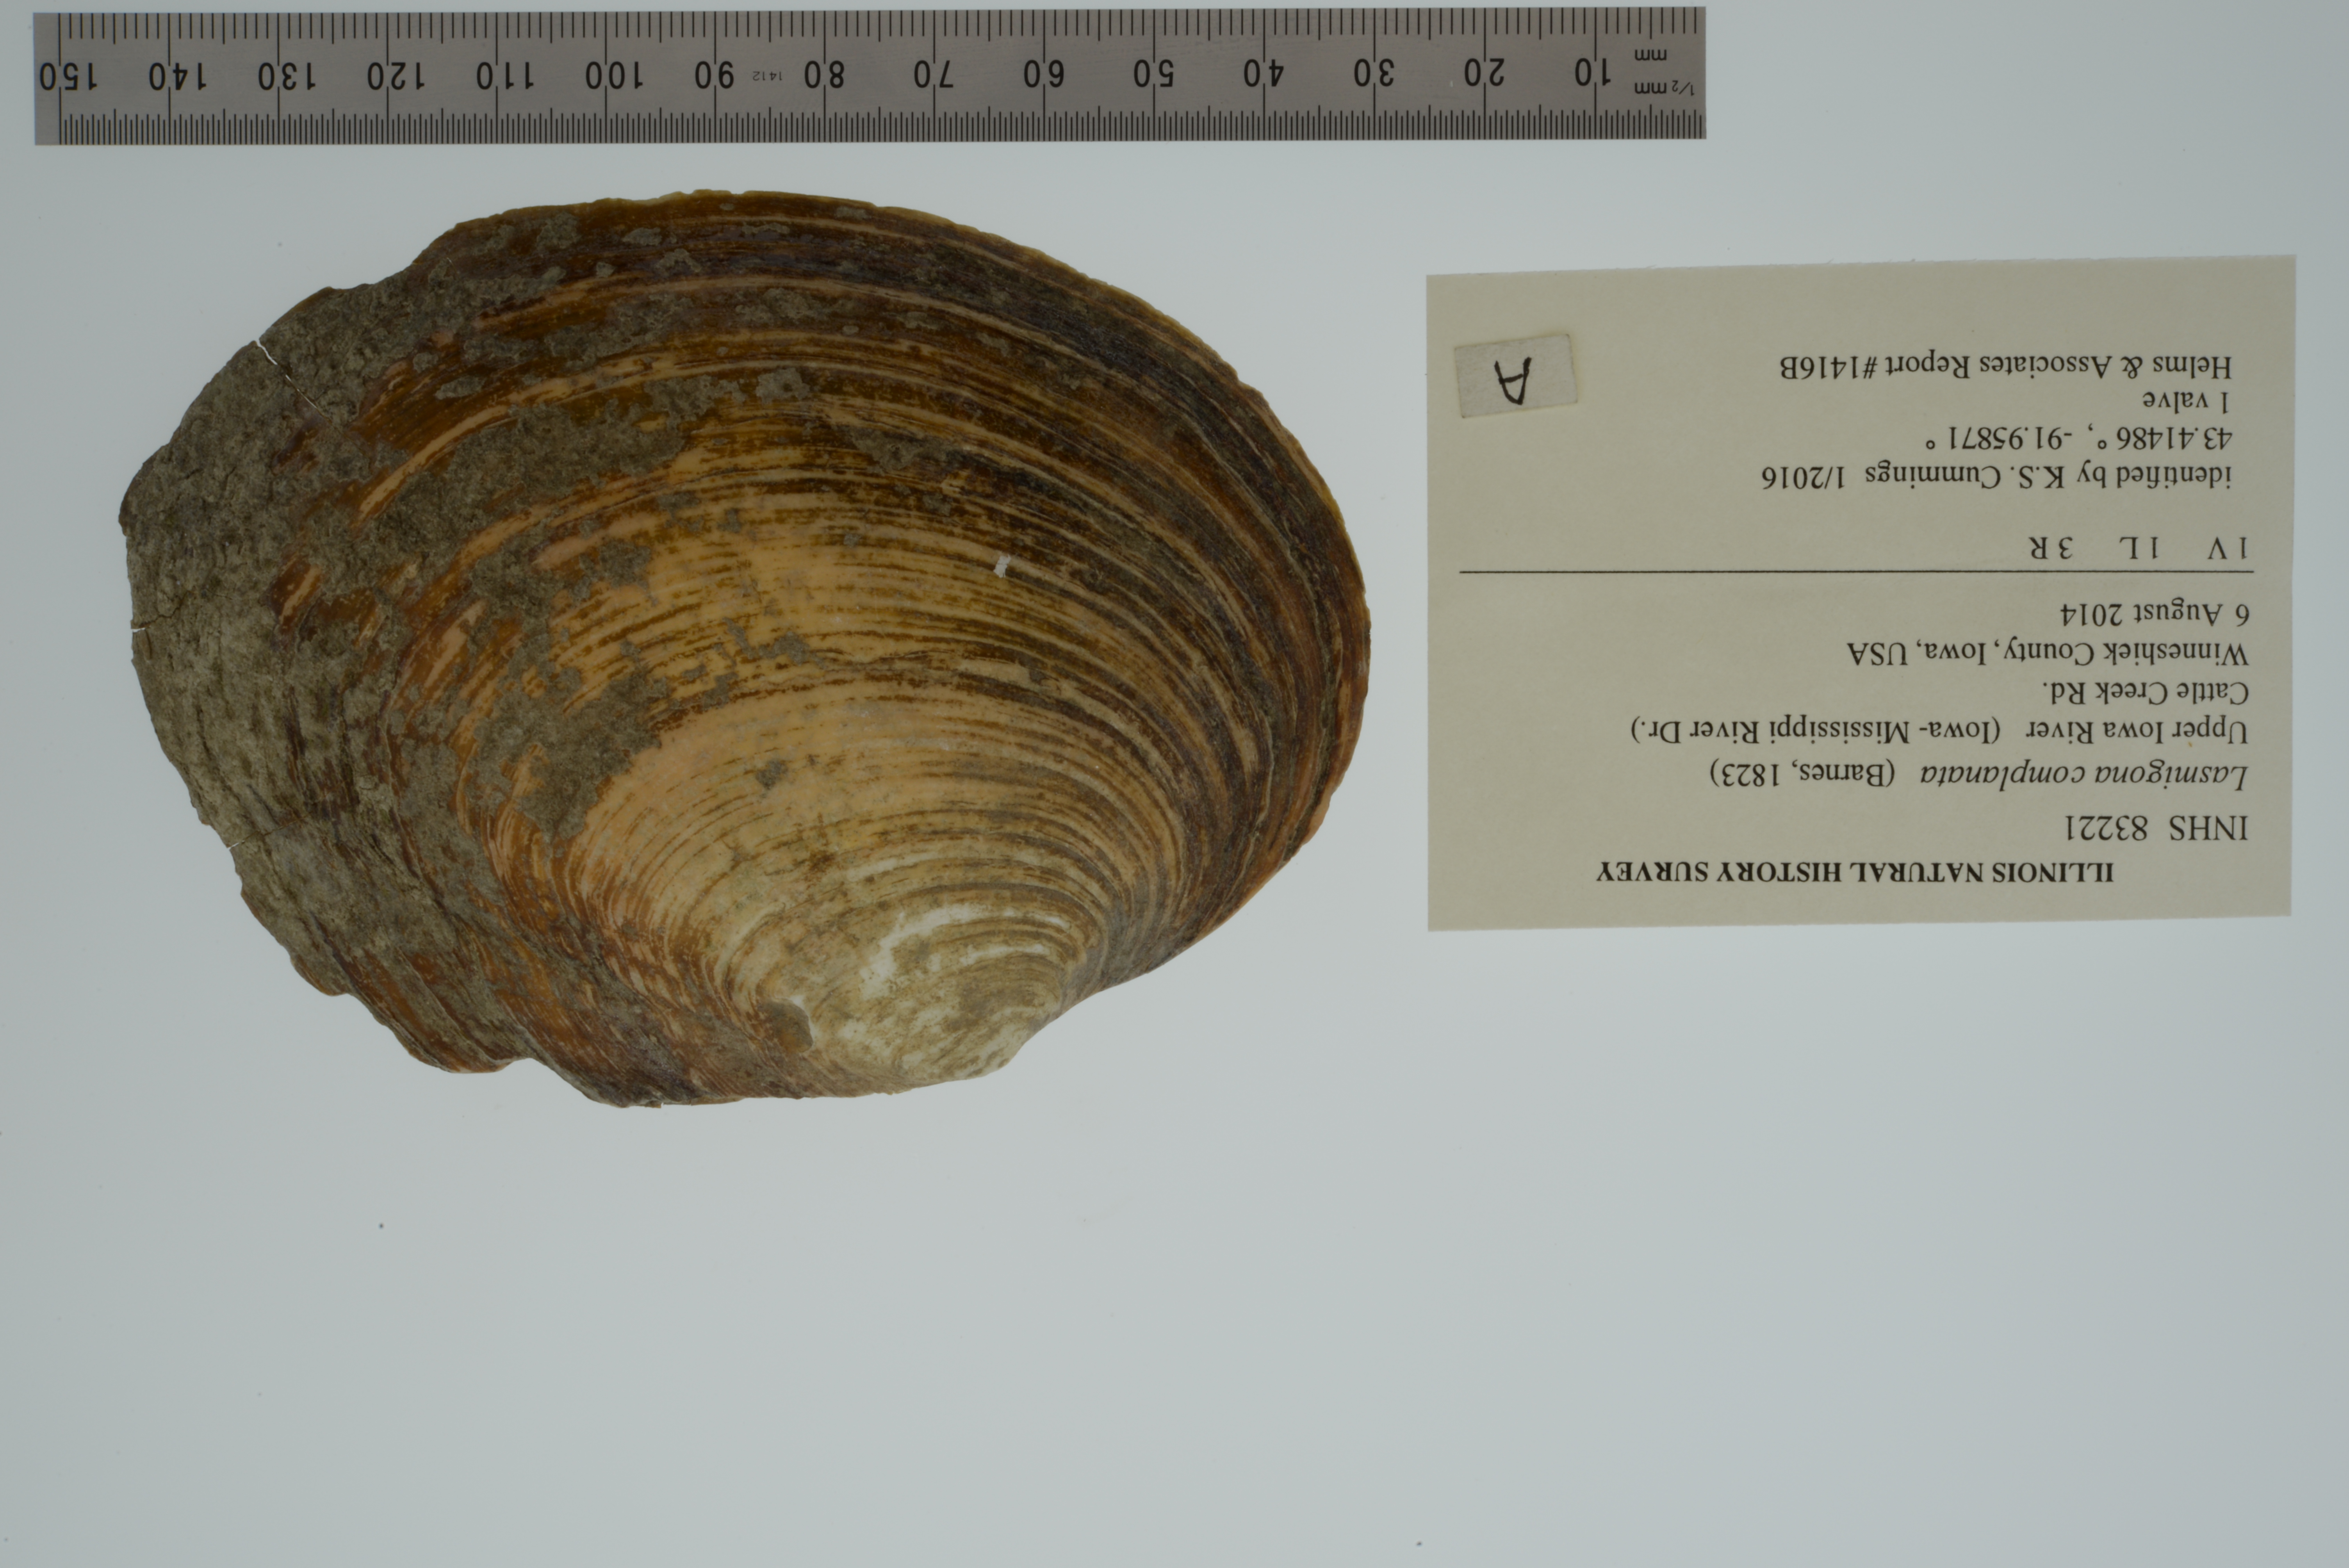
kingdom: Animalia
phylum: Mollusca
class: Bivalvia
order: Unionida
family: Unionidae
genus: Lasmigona
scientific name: Lasmigona complanata
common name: White heelsplitter
